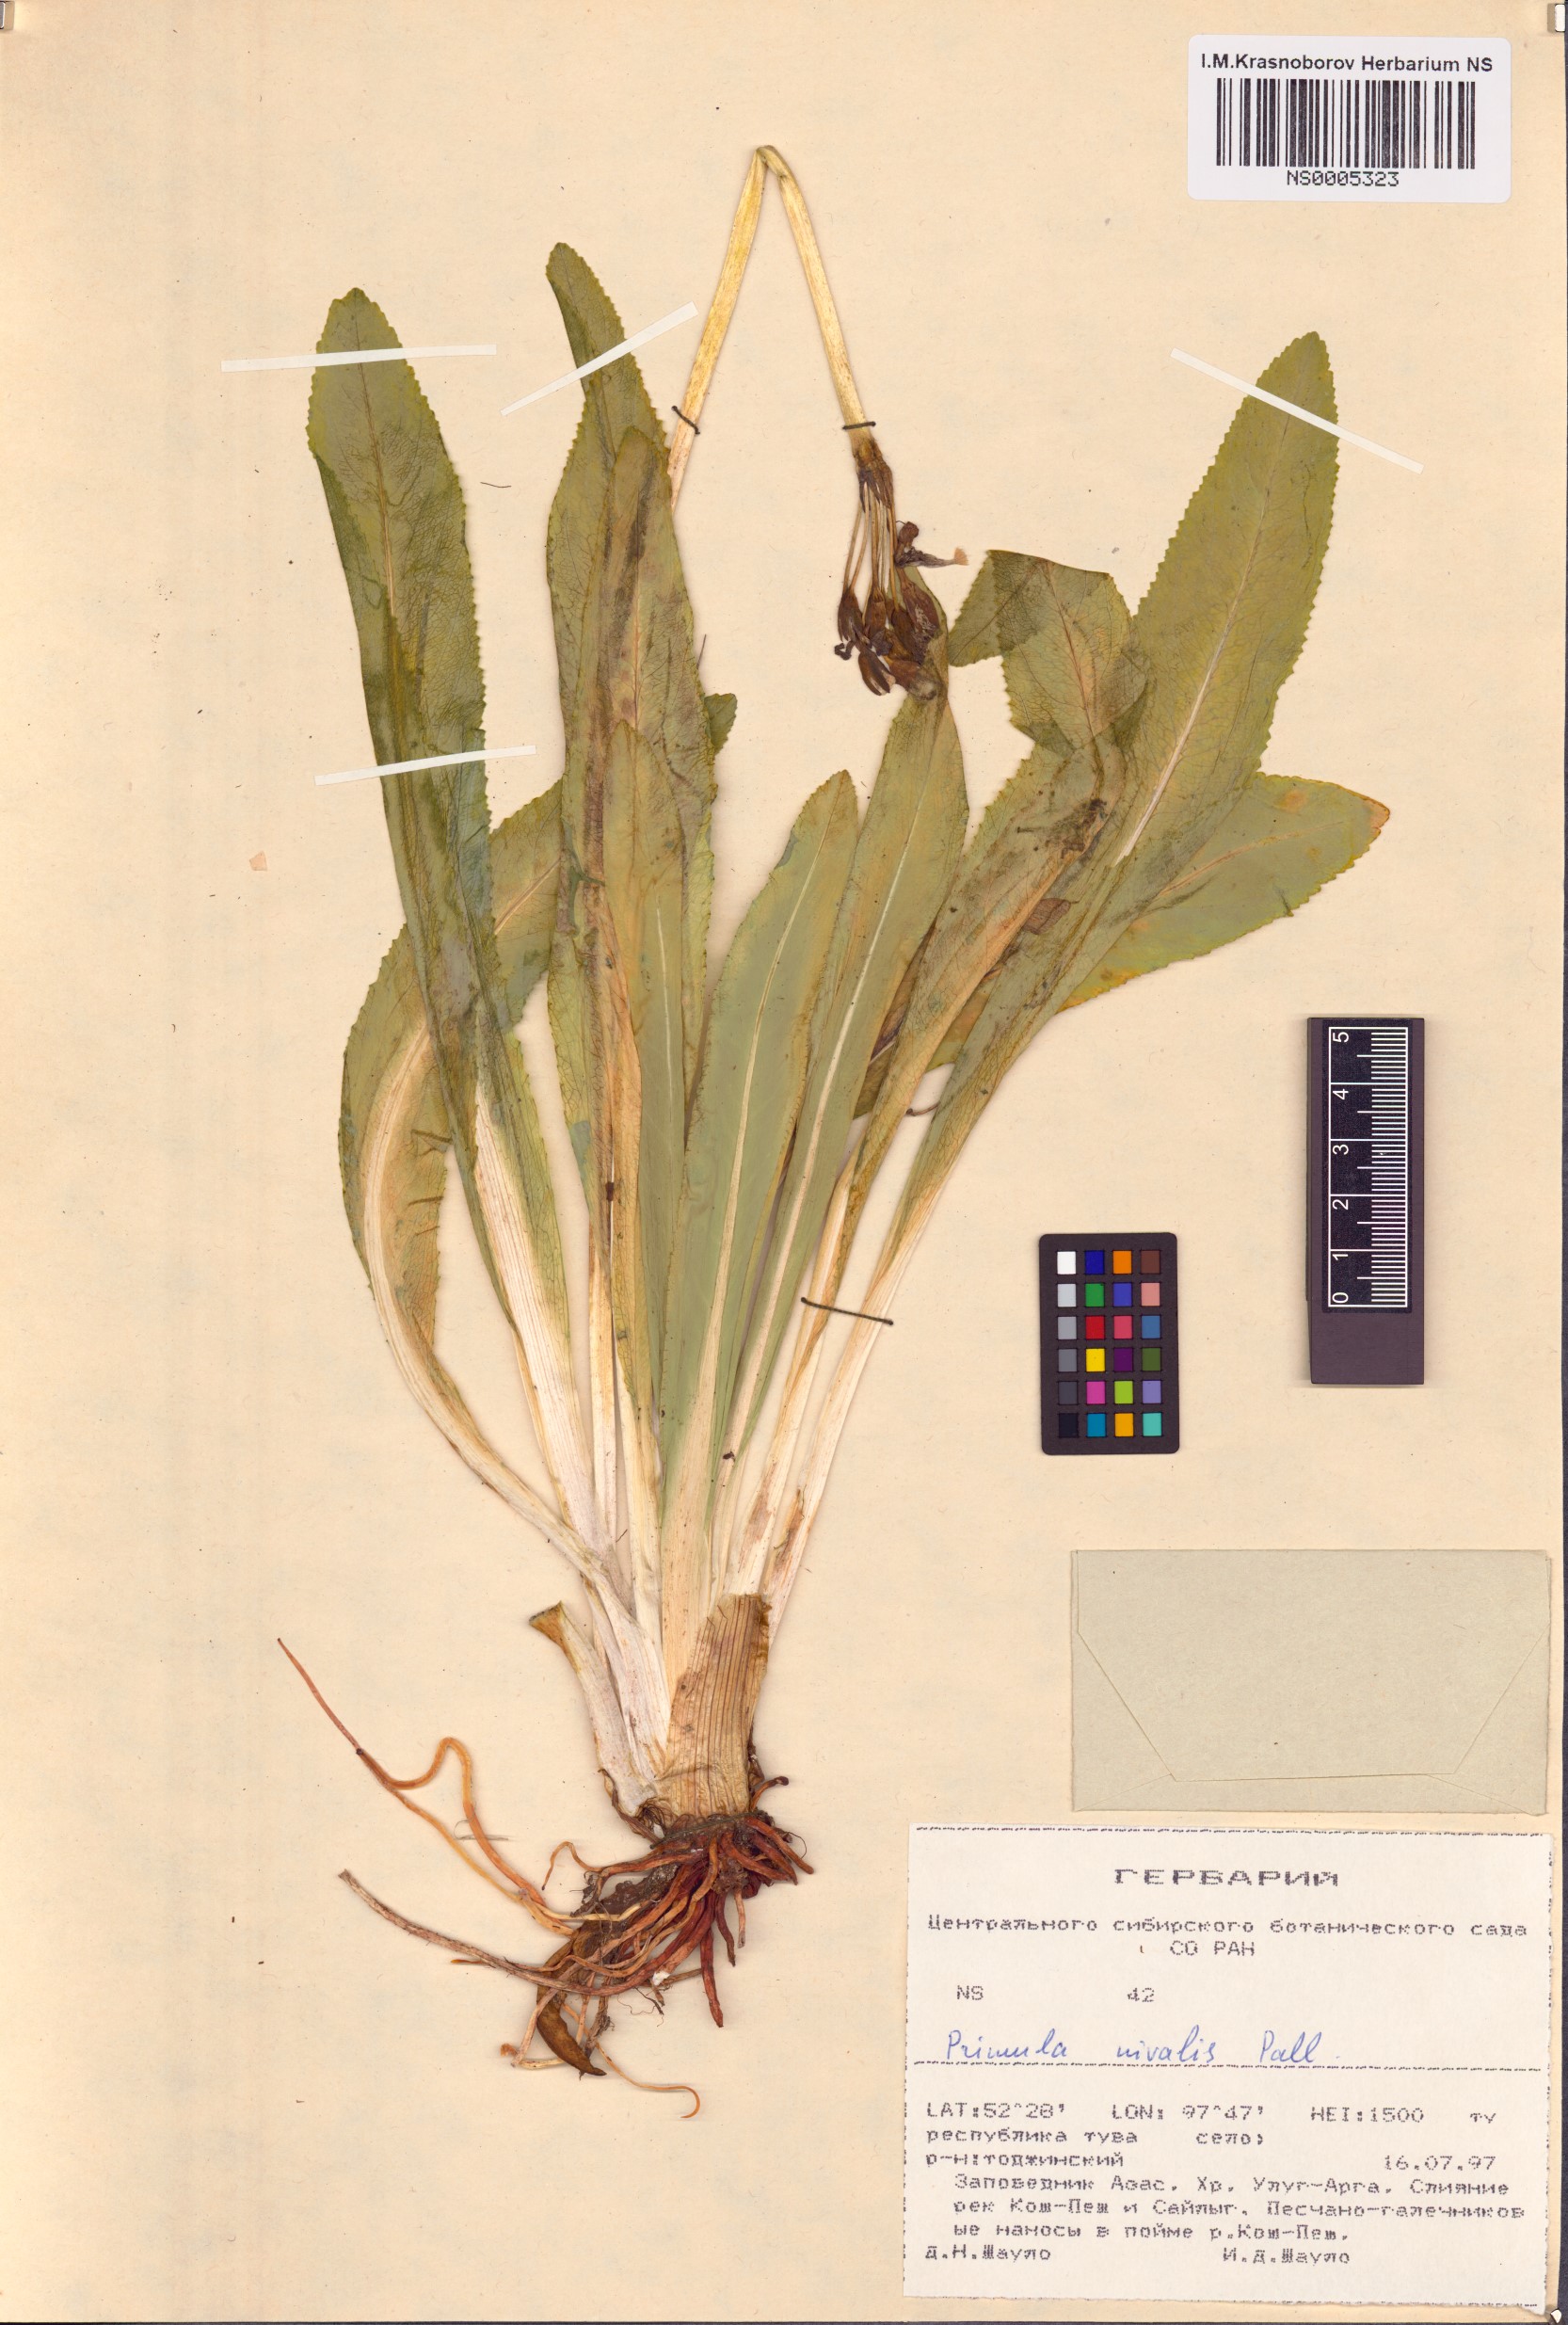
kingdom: Plantae
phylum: Tracheophyta
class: Magnoliopsida
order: Ericales
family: Primulaceae
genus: Primula
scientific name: Primula nivalis
